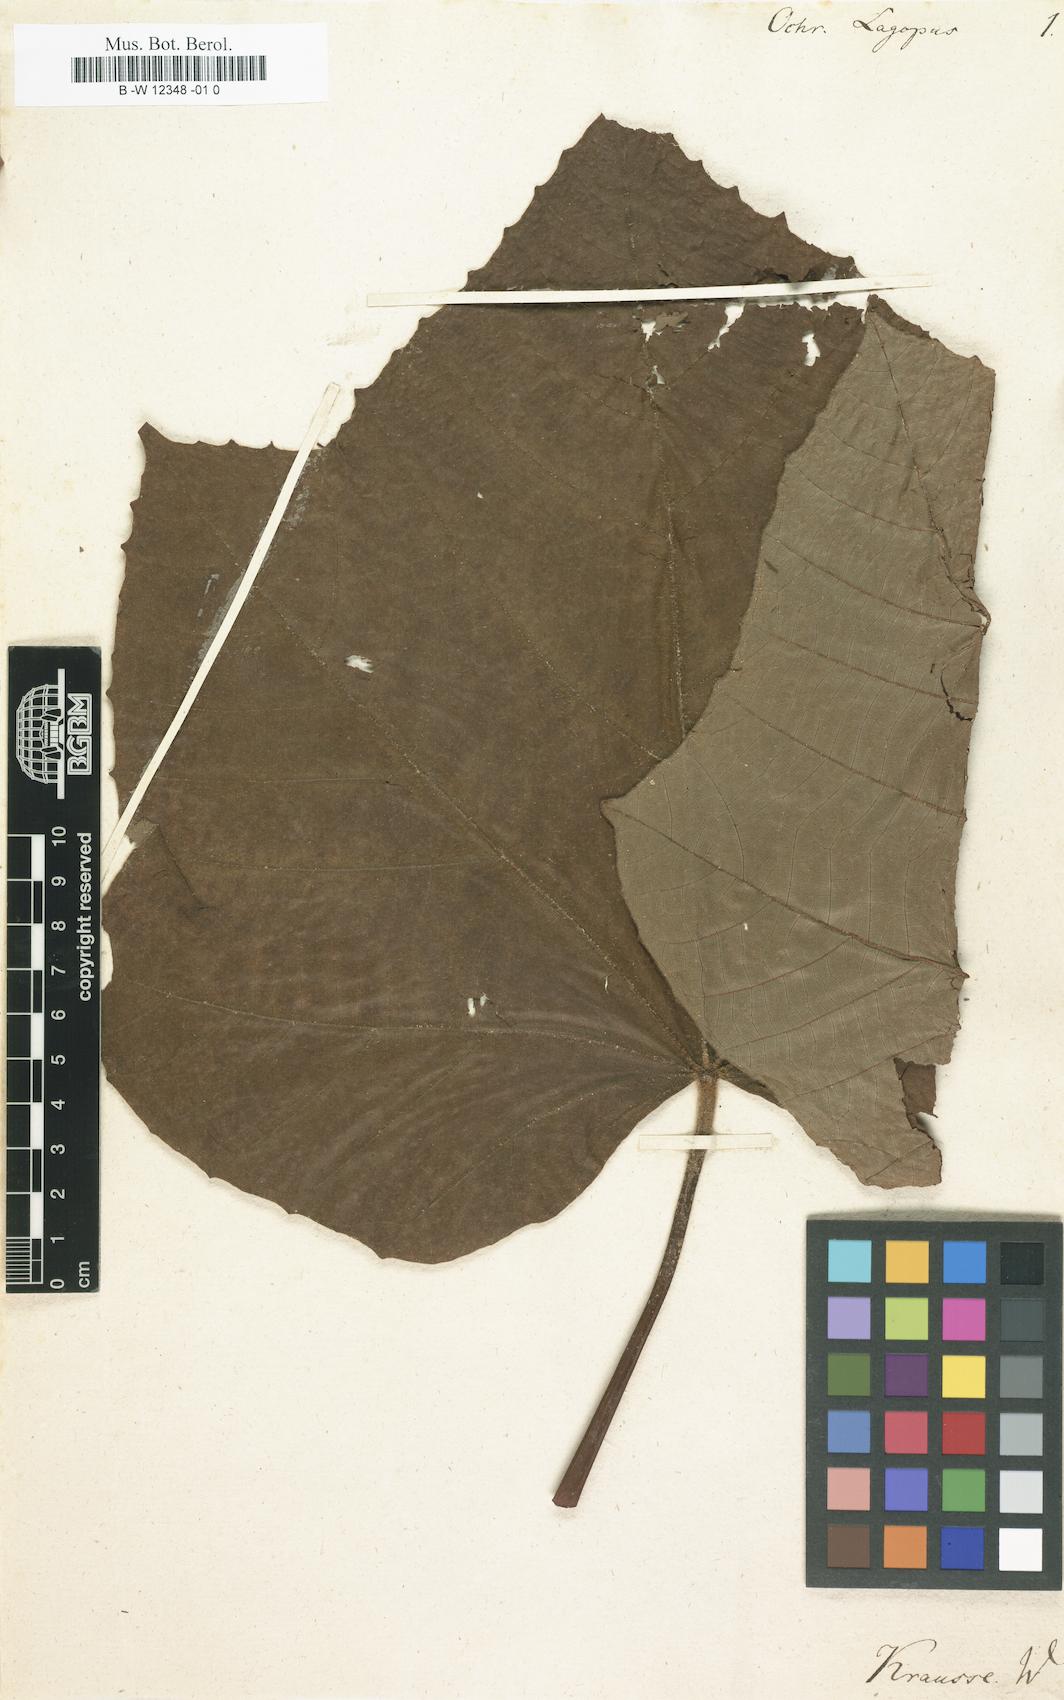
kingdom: Plantae
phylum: Tracheophyta
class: Magnoliopsida
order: Malvales
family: Malvaceae
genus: Ochroma
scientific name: Ochroma pyramidale
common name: Balsa
